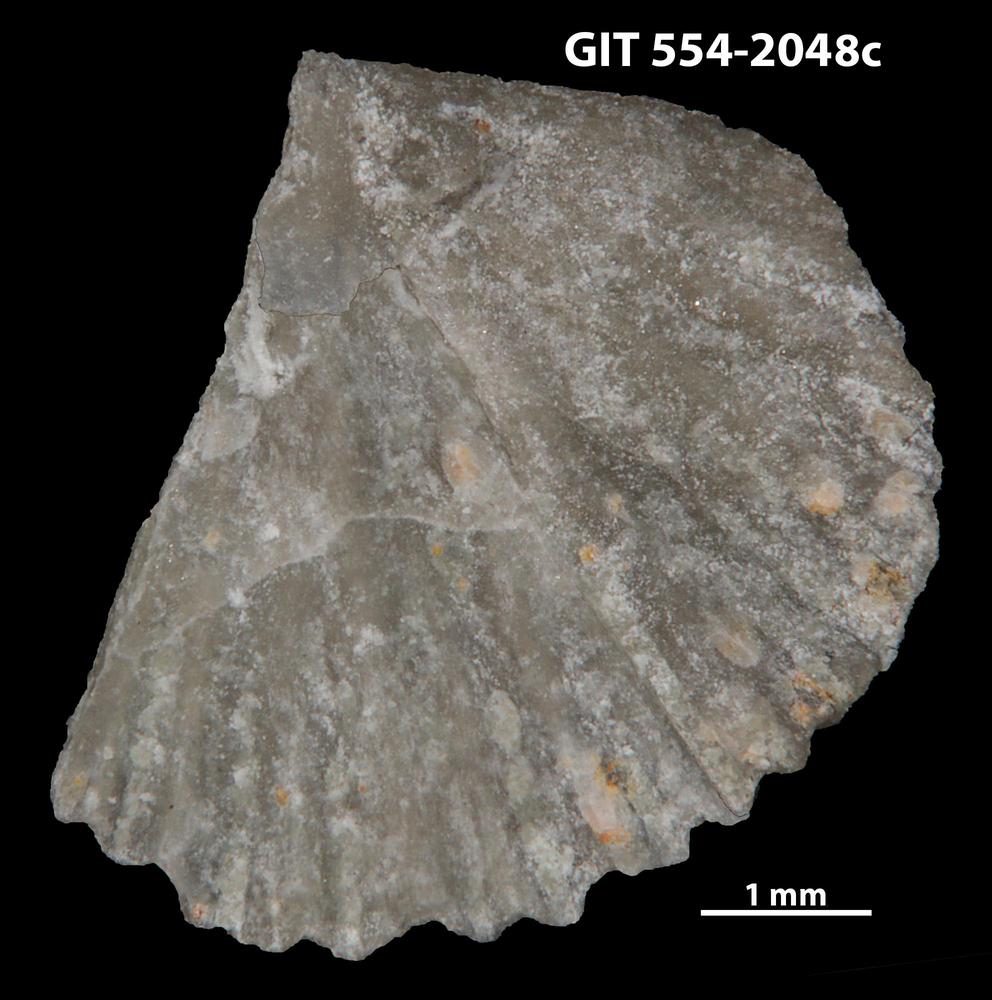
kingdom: Animalia
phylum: Brachiopoda
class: Rhynchonellata
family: Wangyuiidae
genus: Wangyuia
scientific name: Wangyuia
